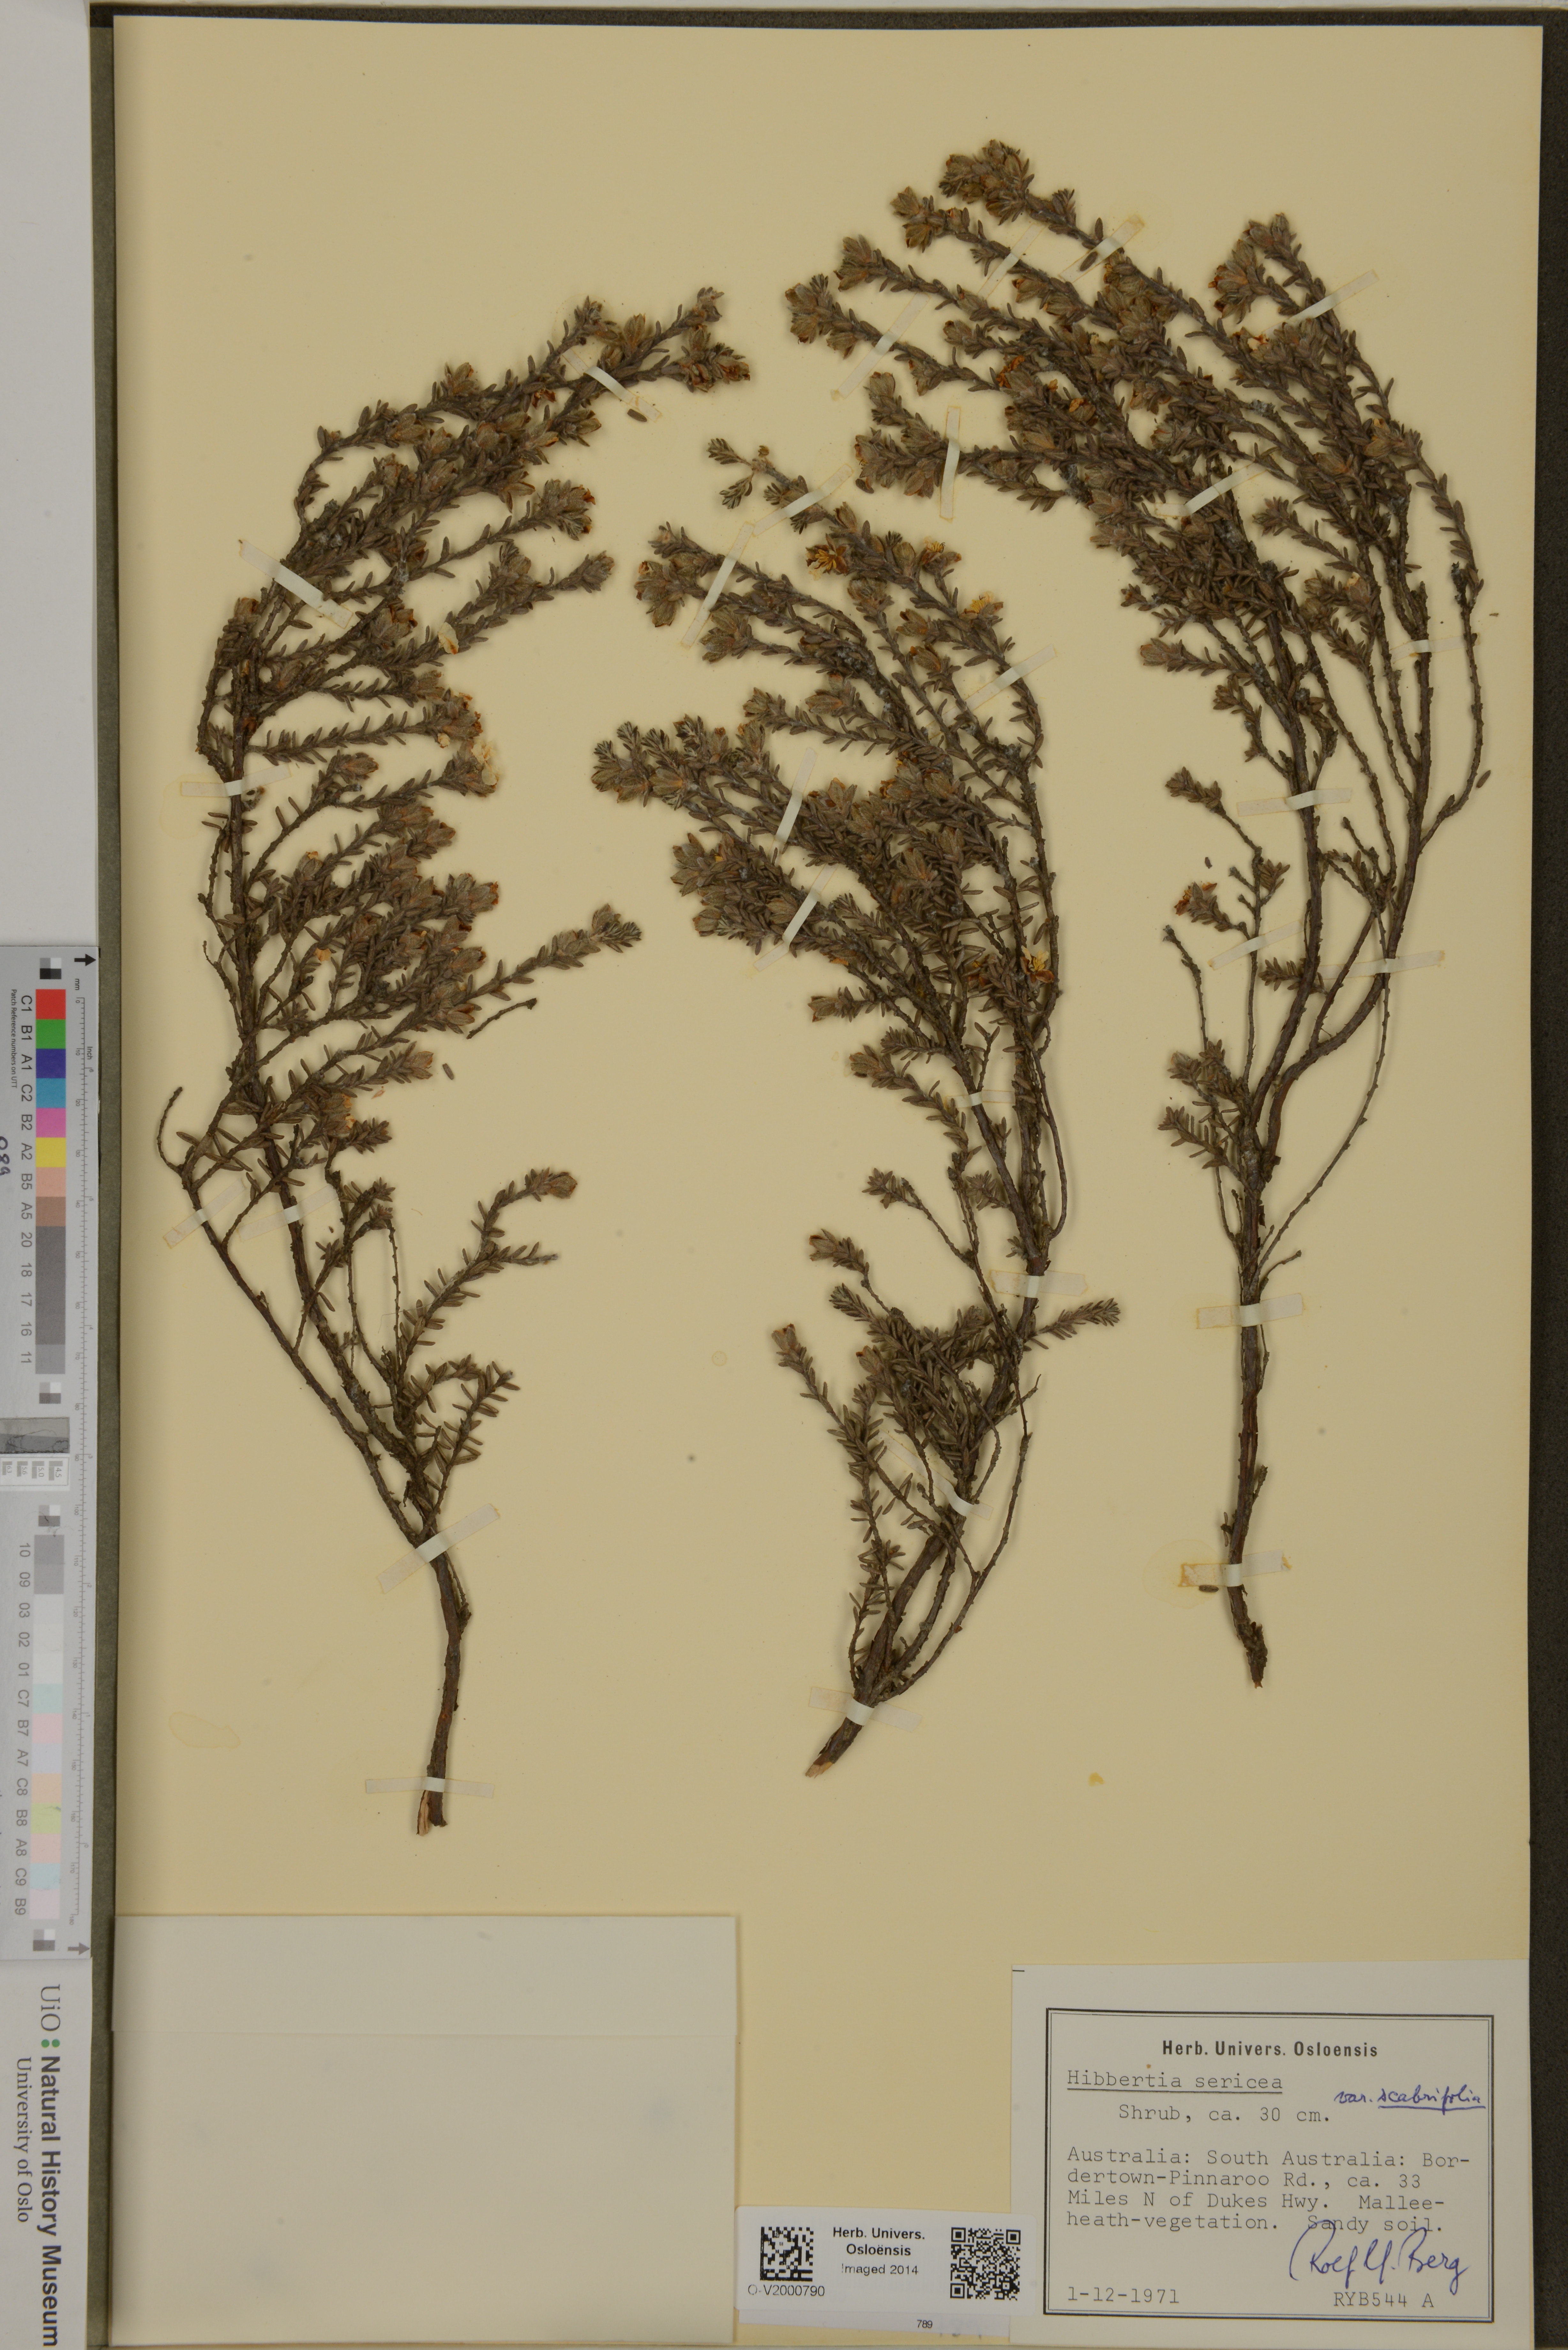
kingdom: Plantae
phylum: Tracheophyta
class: Magnoliopsida
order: Dilleniales
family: Dilleniaceae
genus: Hibbertia
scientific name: Hibbertia sericea
